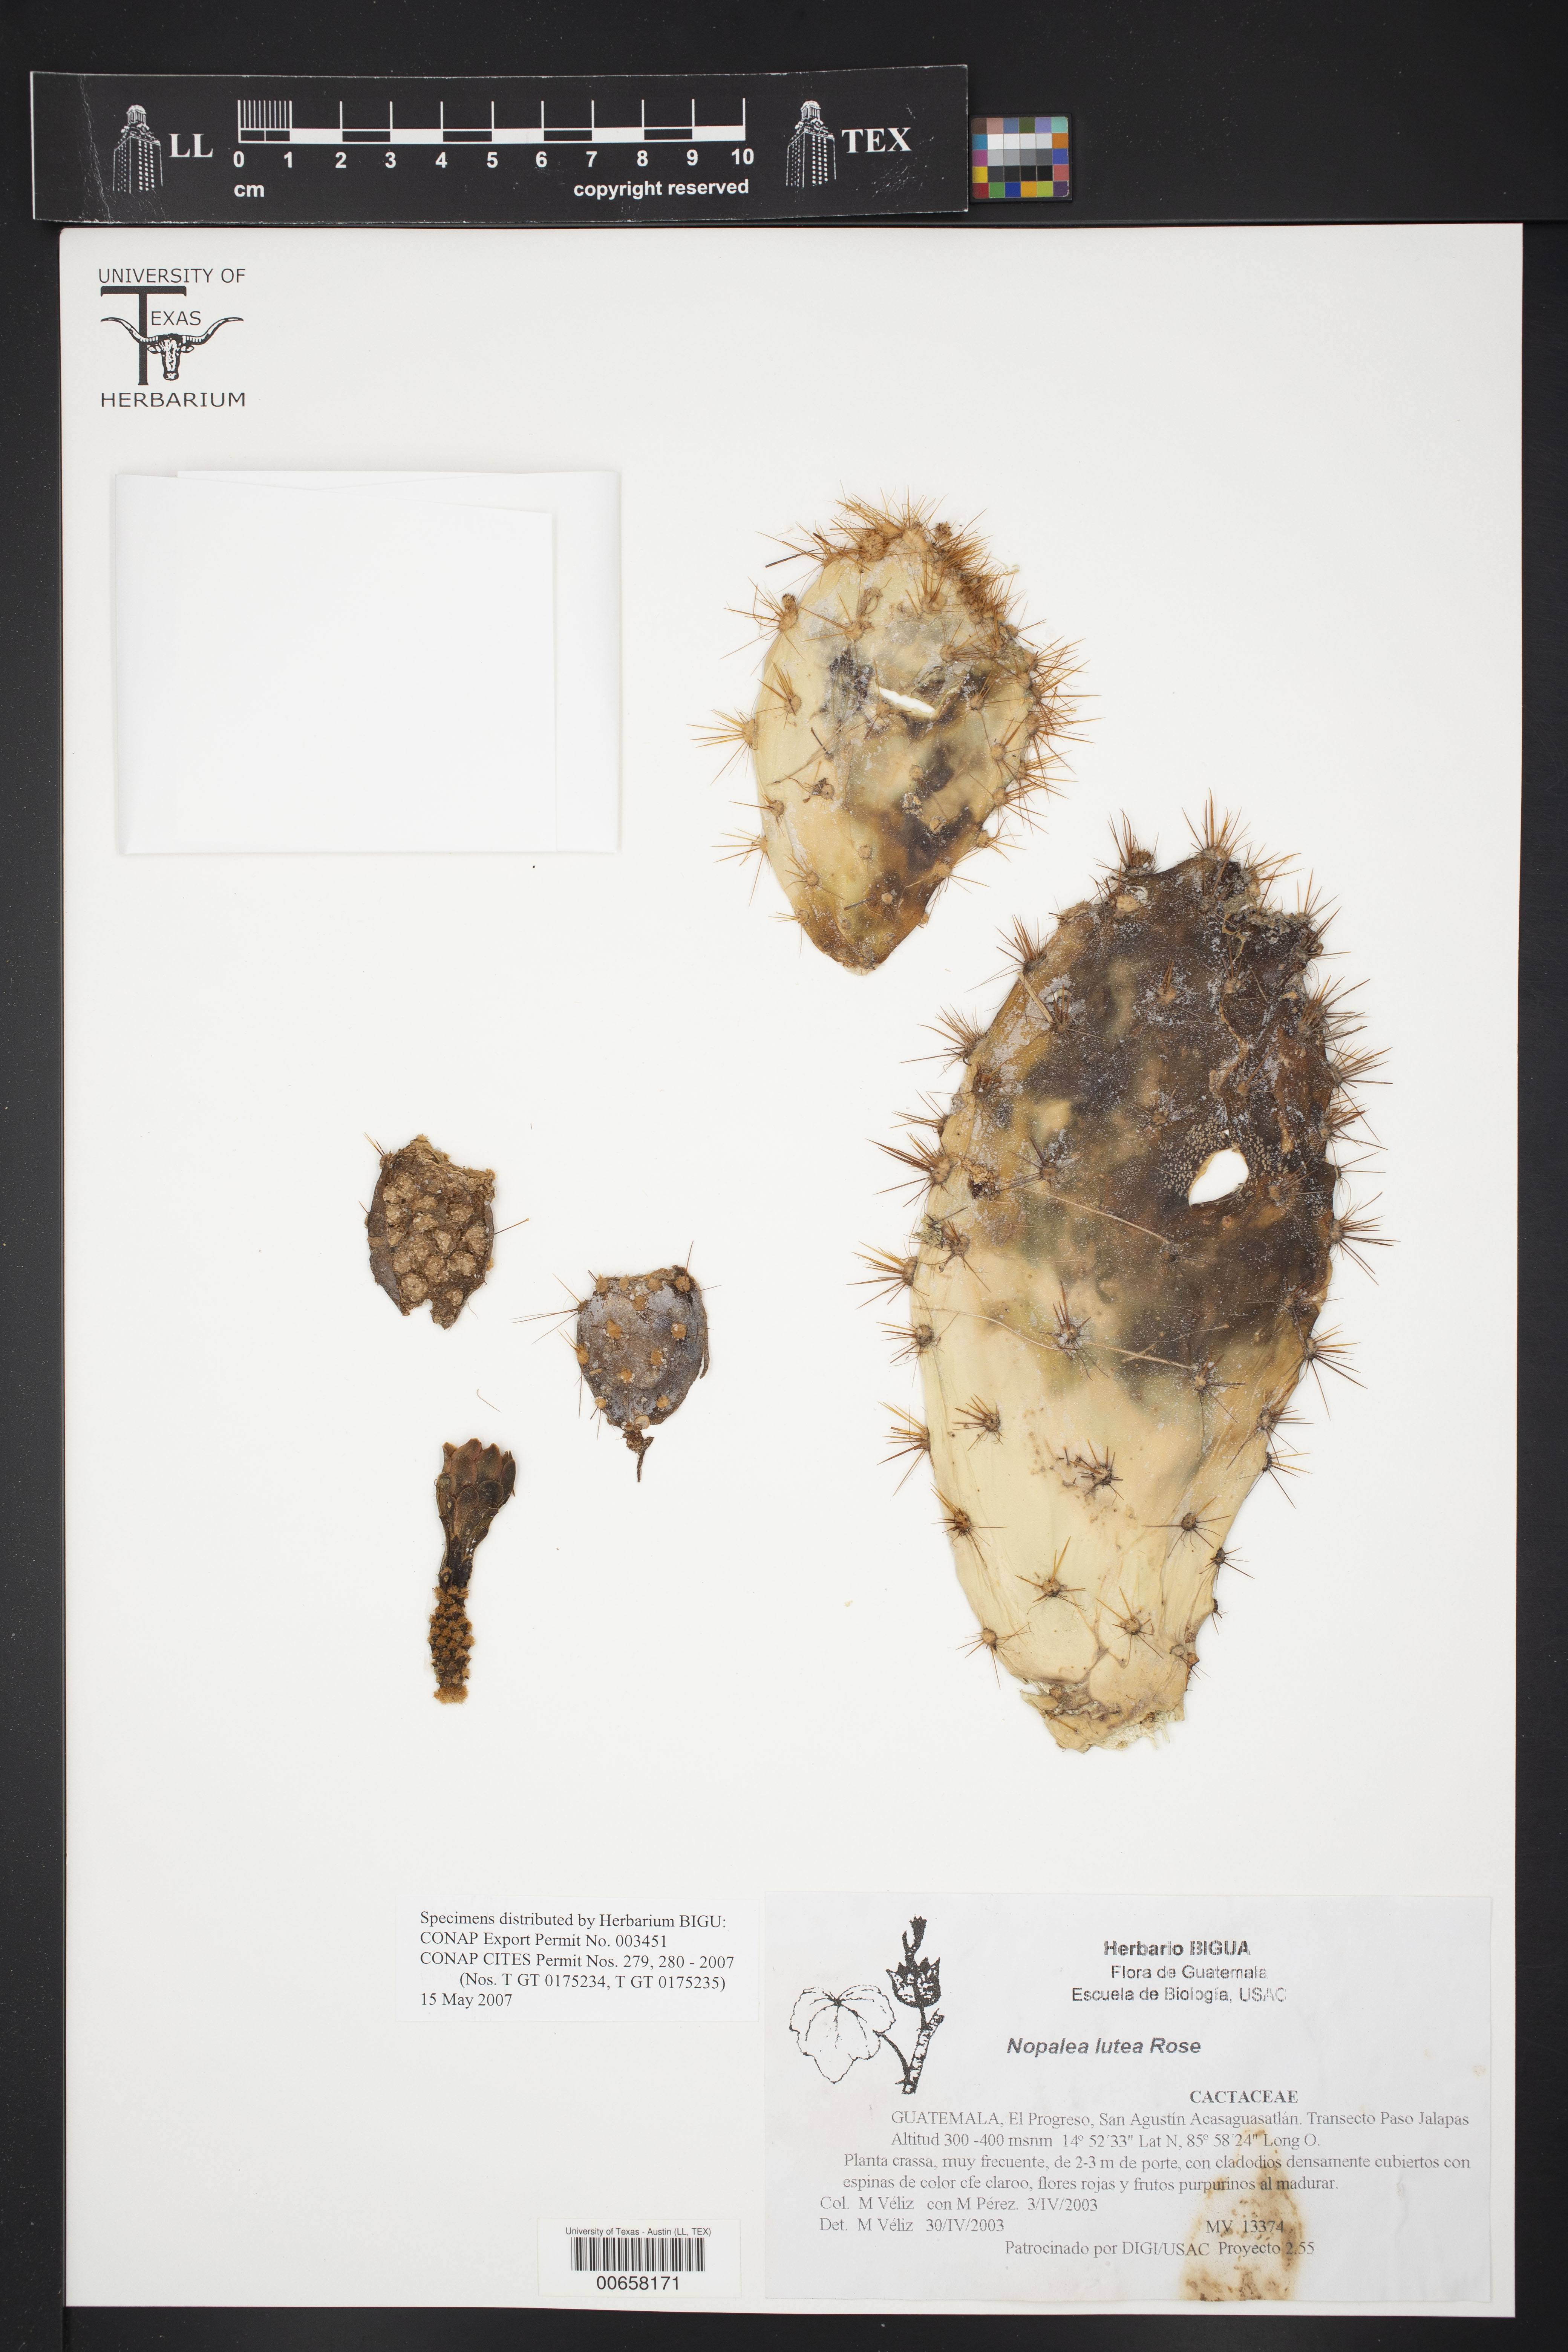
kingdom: Plantae
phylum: Tracheophyta
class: Magnoliopsida
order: Caryophyllales
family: Cactaceae
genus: Opuntia
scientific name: Opuntia lutea
